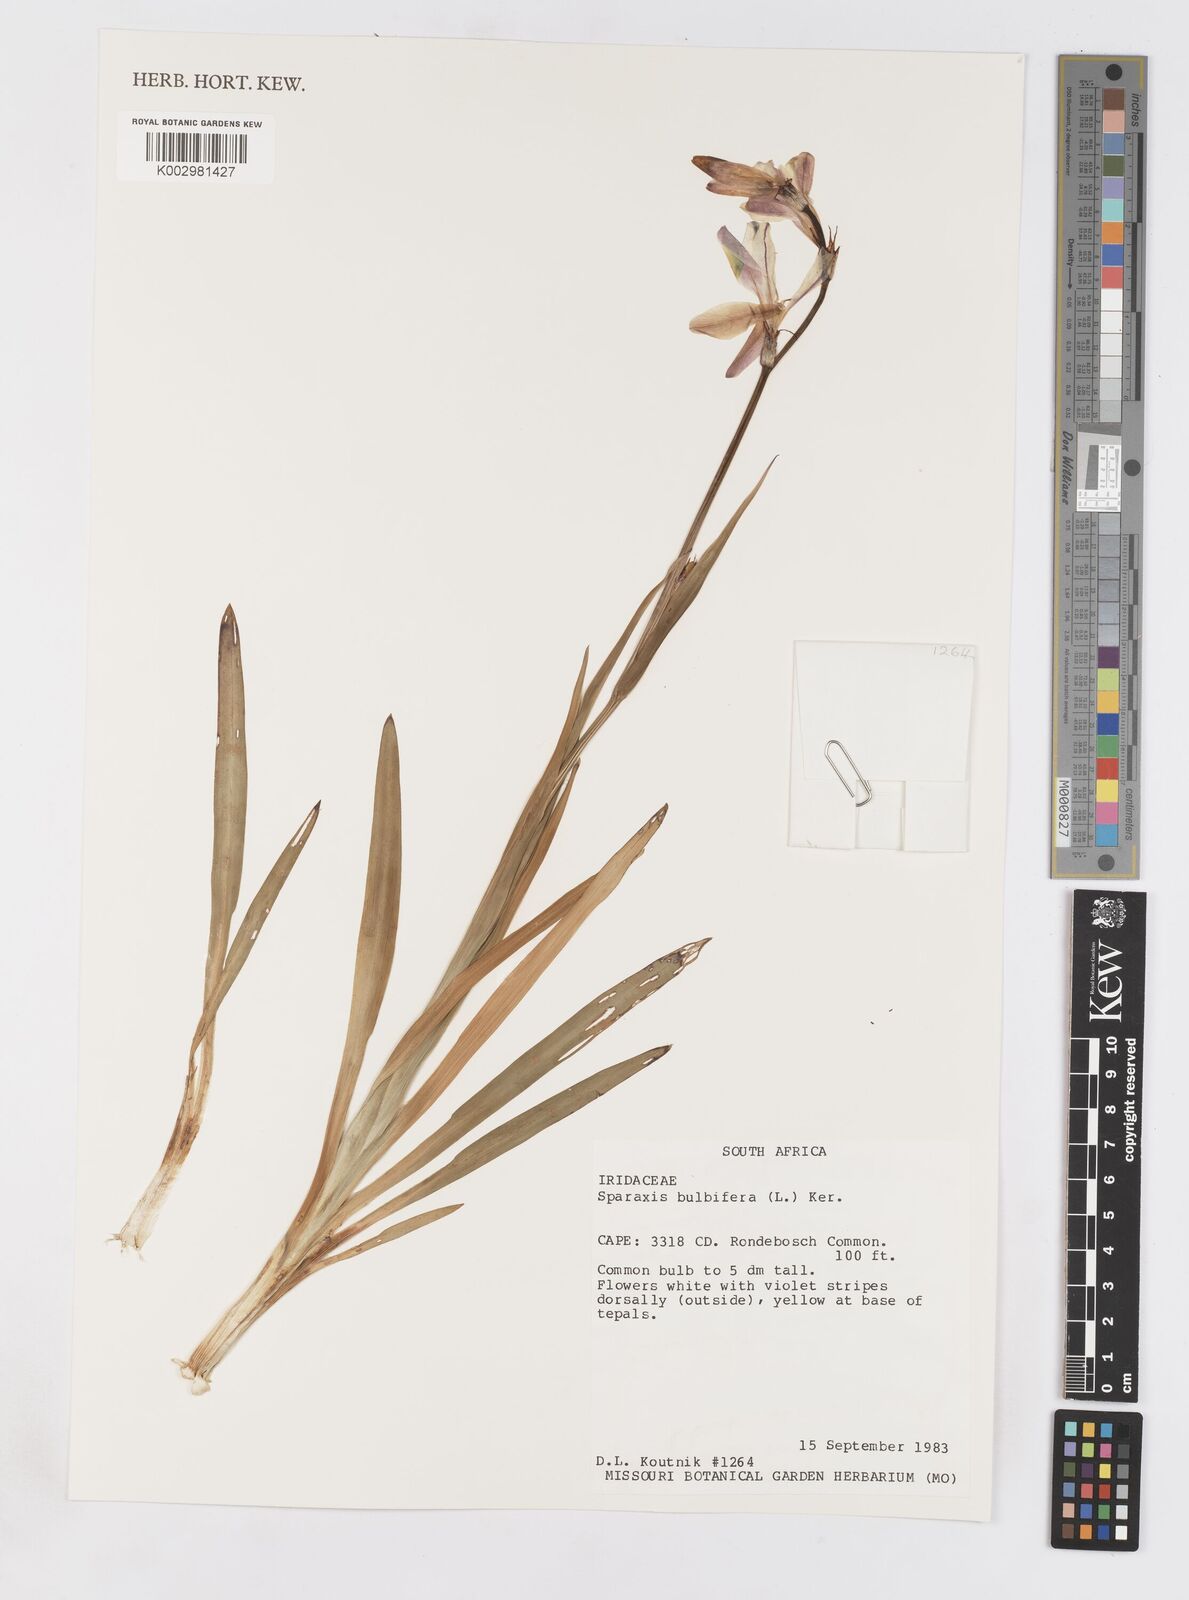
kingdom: Plantae
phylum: Tracheophyta
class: Liliopsida
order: Asparagales
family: Iridaceae
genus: Sparaxis
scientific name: Sparaxis bulbifera
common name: Harlequin-flower
